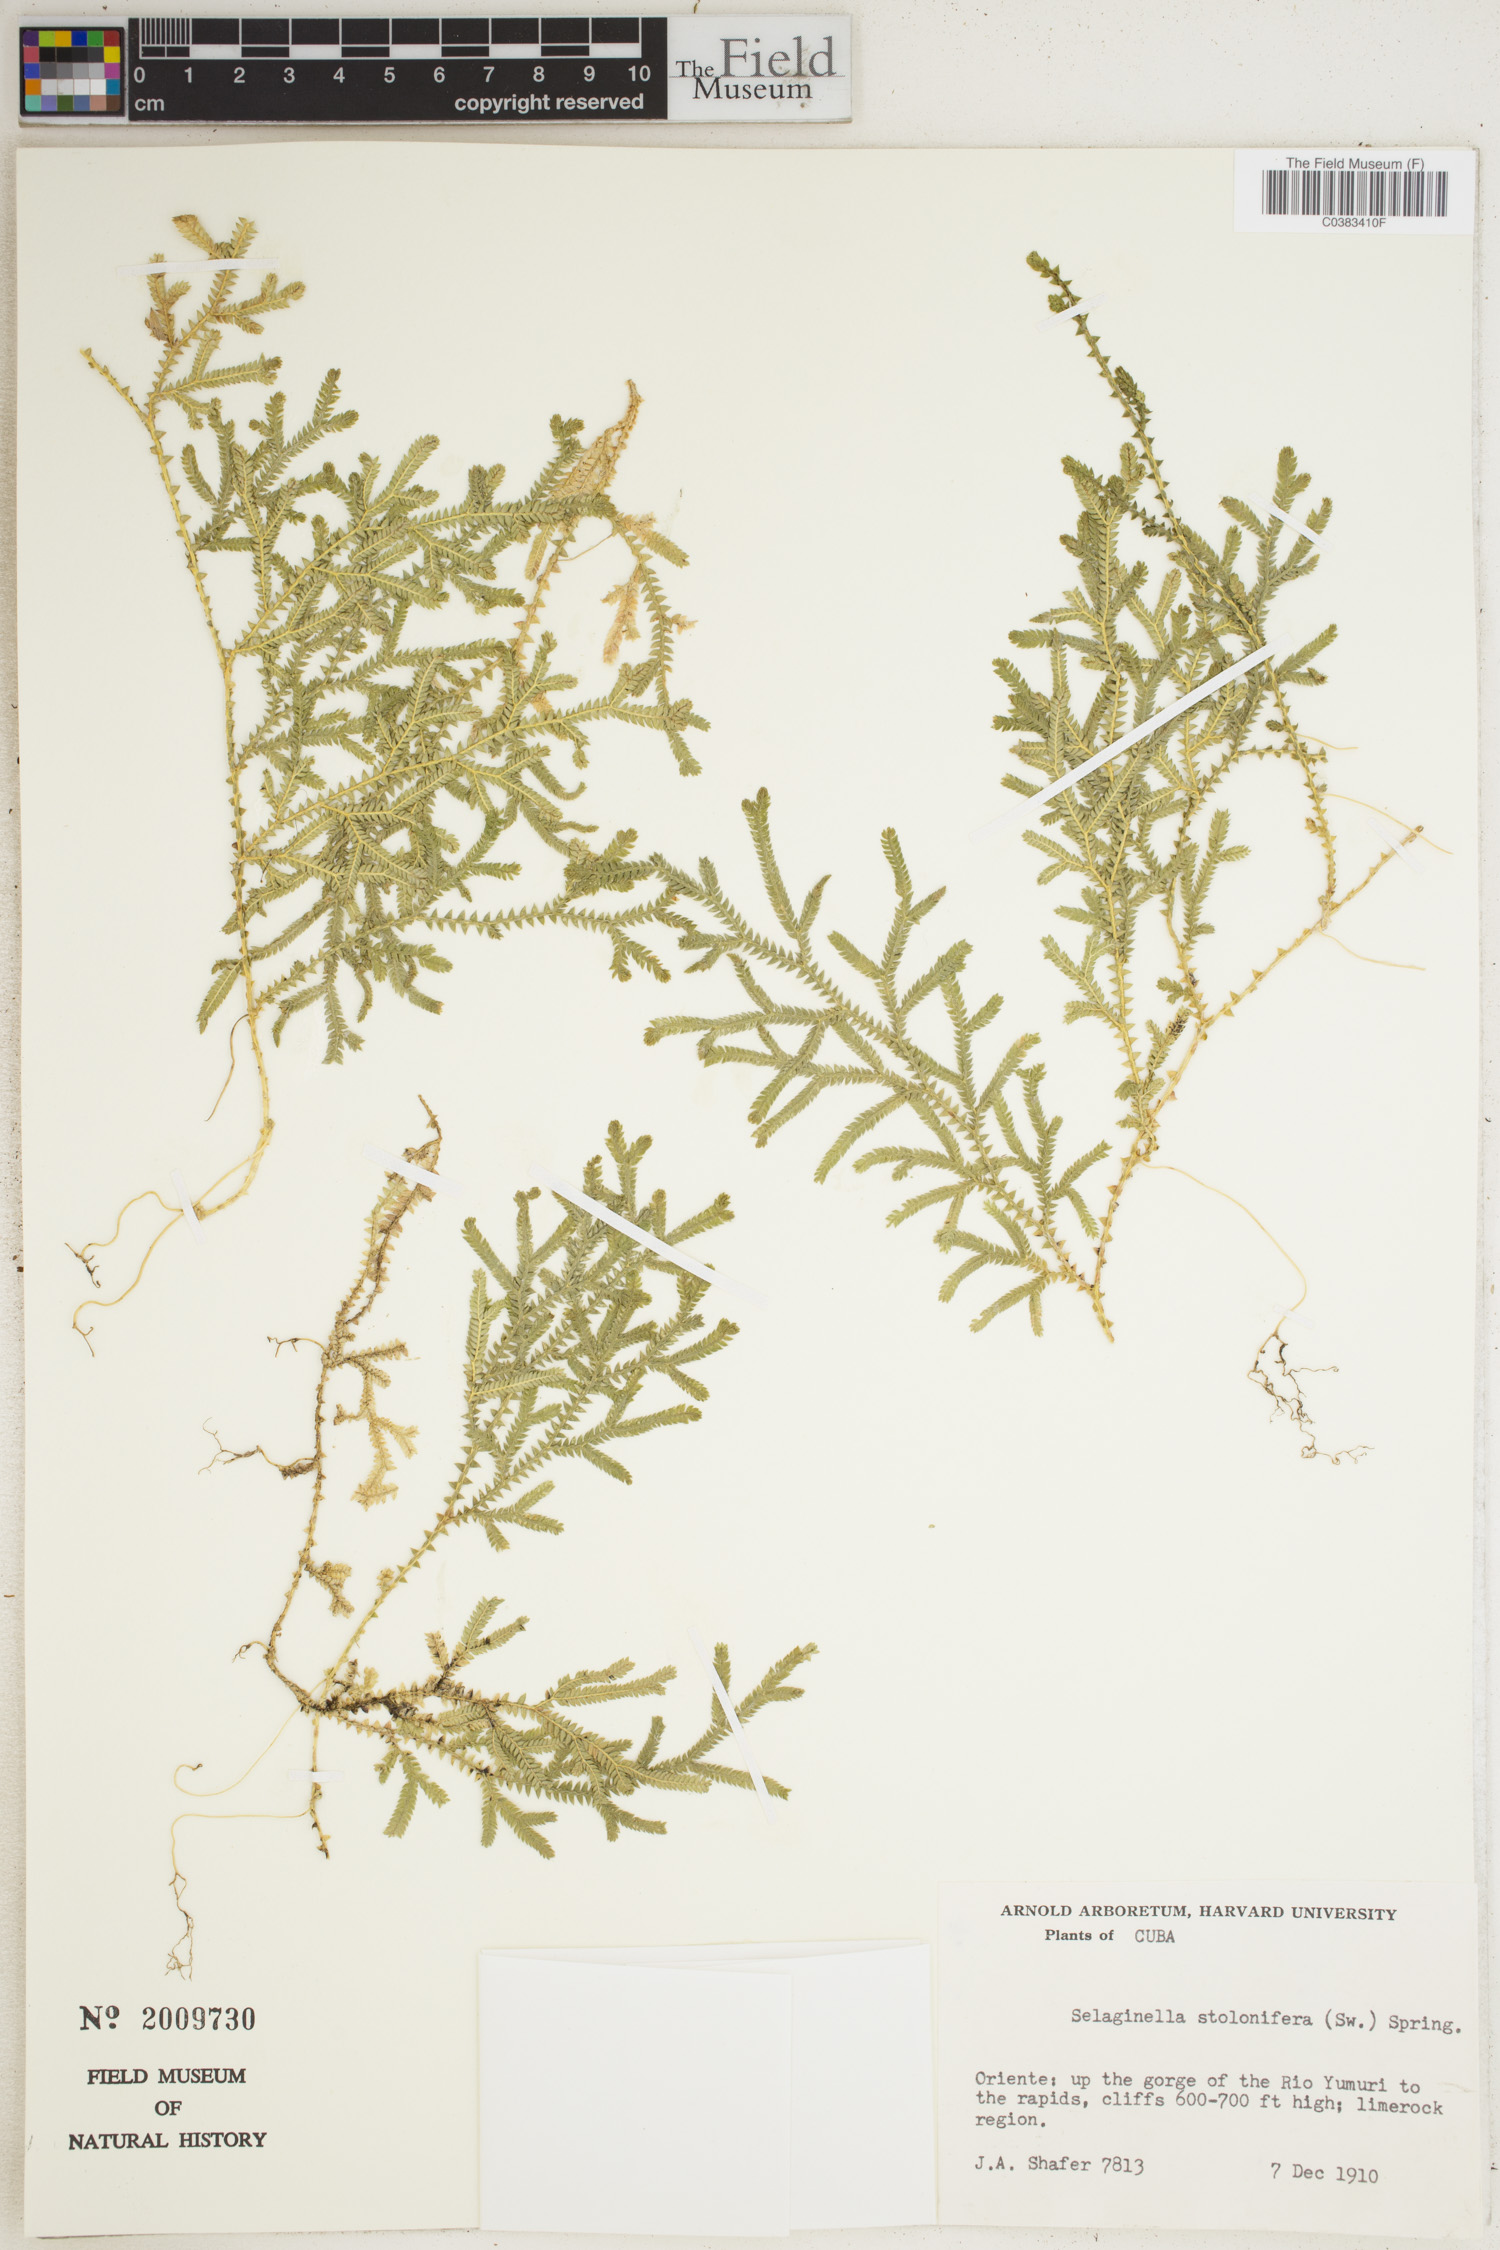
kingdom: Plantae
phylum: Tracheophyta
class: Lycopodiopsida
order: Selaginellales
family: Selaginellaceae
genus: Selaginella
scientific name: Selaginella plumosa
